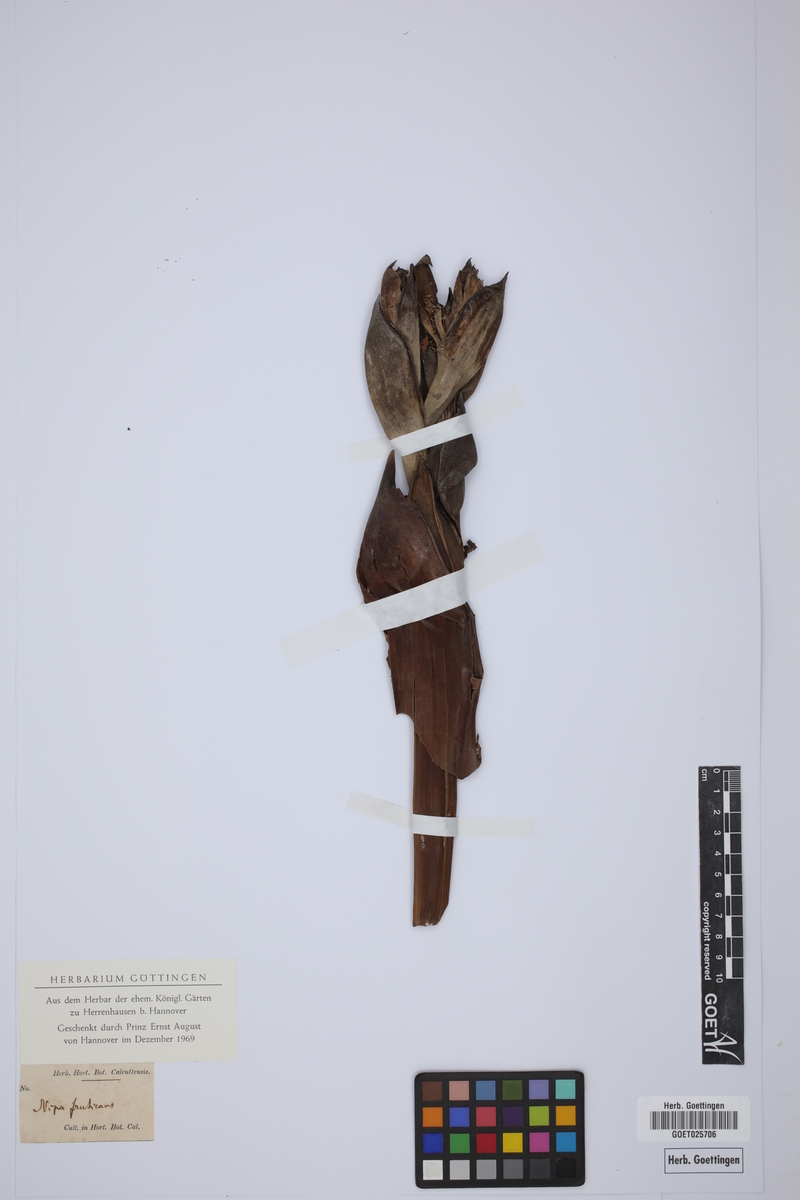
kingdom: Plantae
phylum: Tracheophyta
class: Liliopsida
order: Arecales
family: Arecaceae
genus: Nypa
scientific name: Nypa fruticans
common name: Mangrove palm
